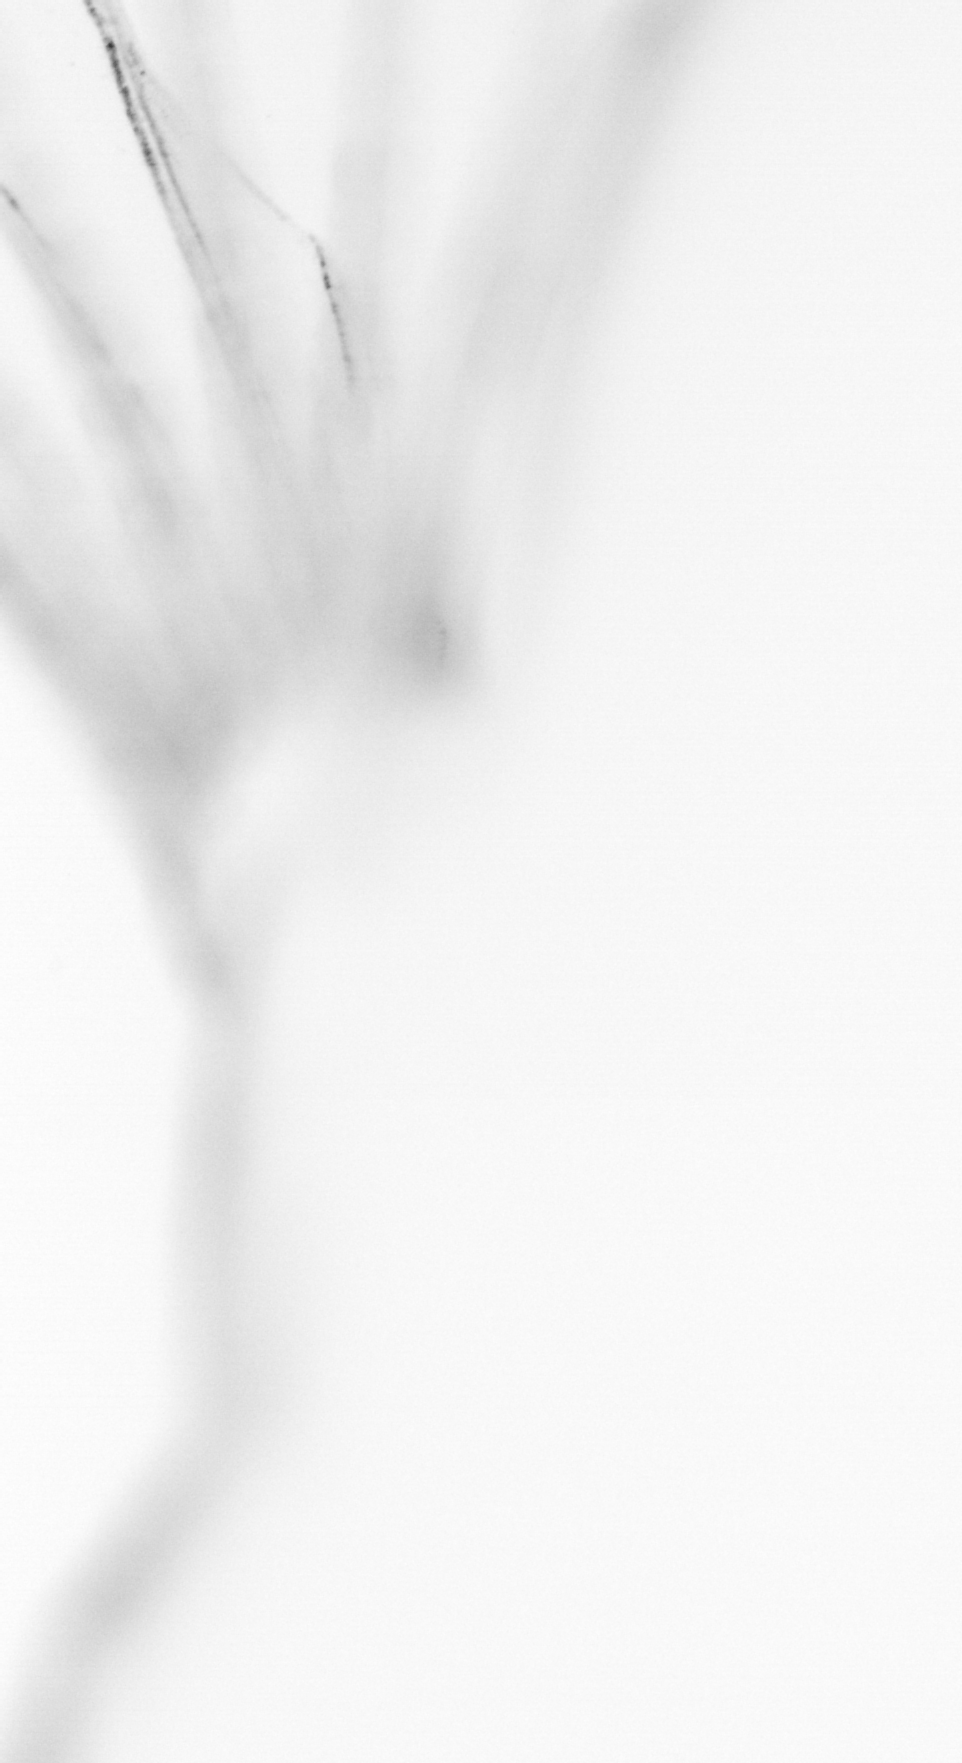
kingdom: Animalia
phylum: Chordata
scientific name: Chordata
